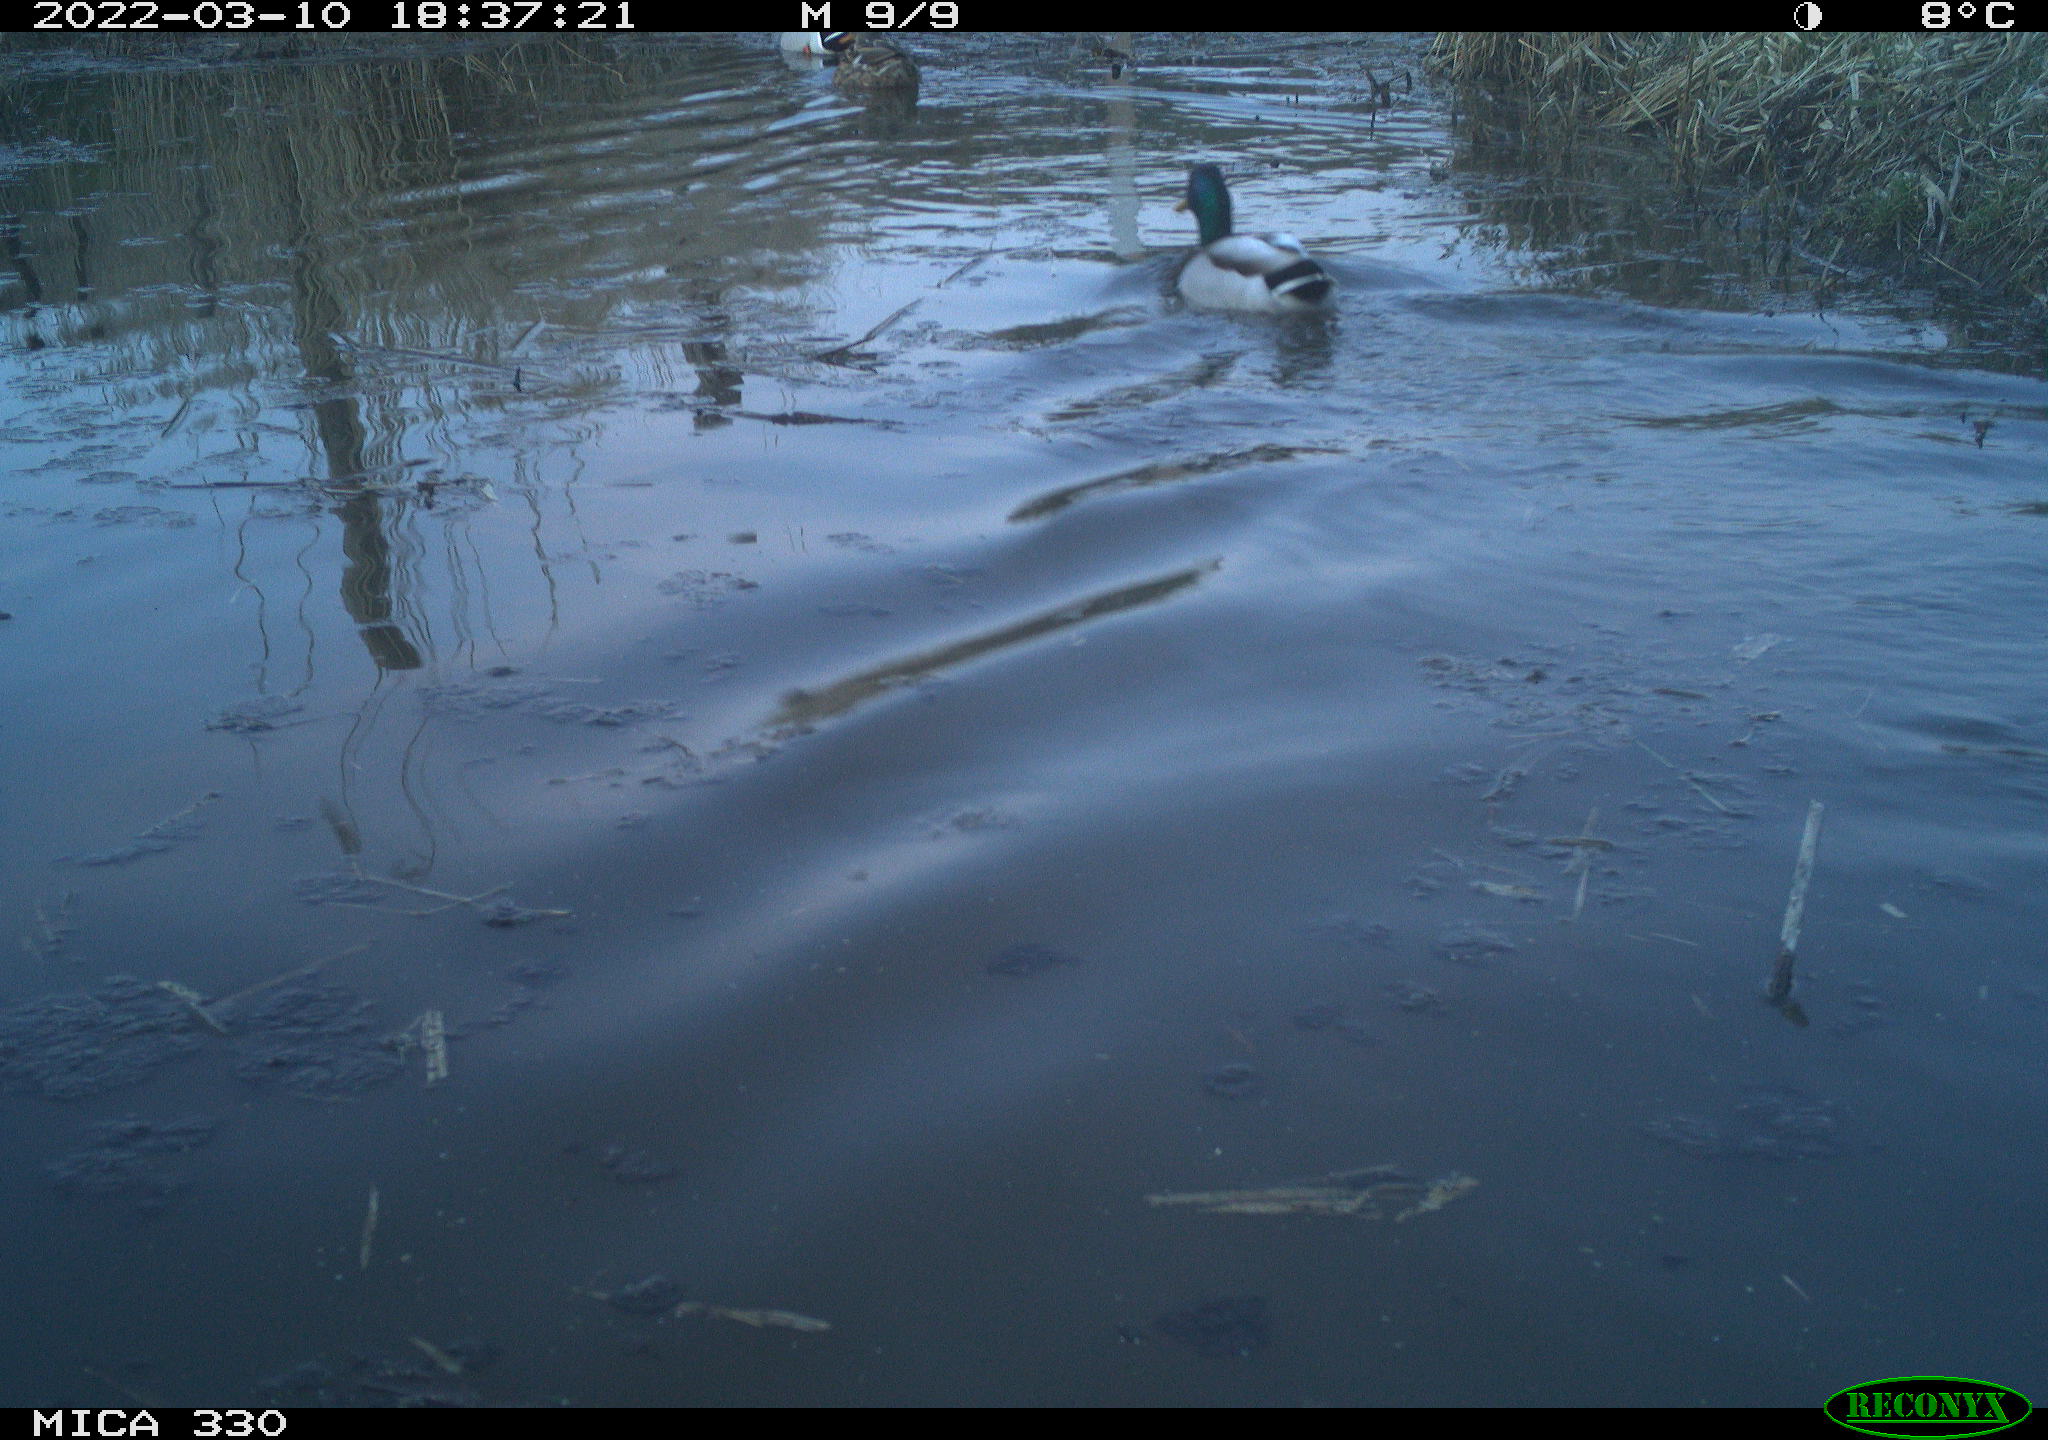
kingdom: Animalia
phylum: Chordata
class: Aves
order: Anseriformes
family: Anatidae
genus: Anas
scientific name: Anas platyrhynchos
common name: Mallard
